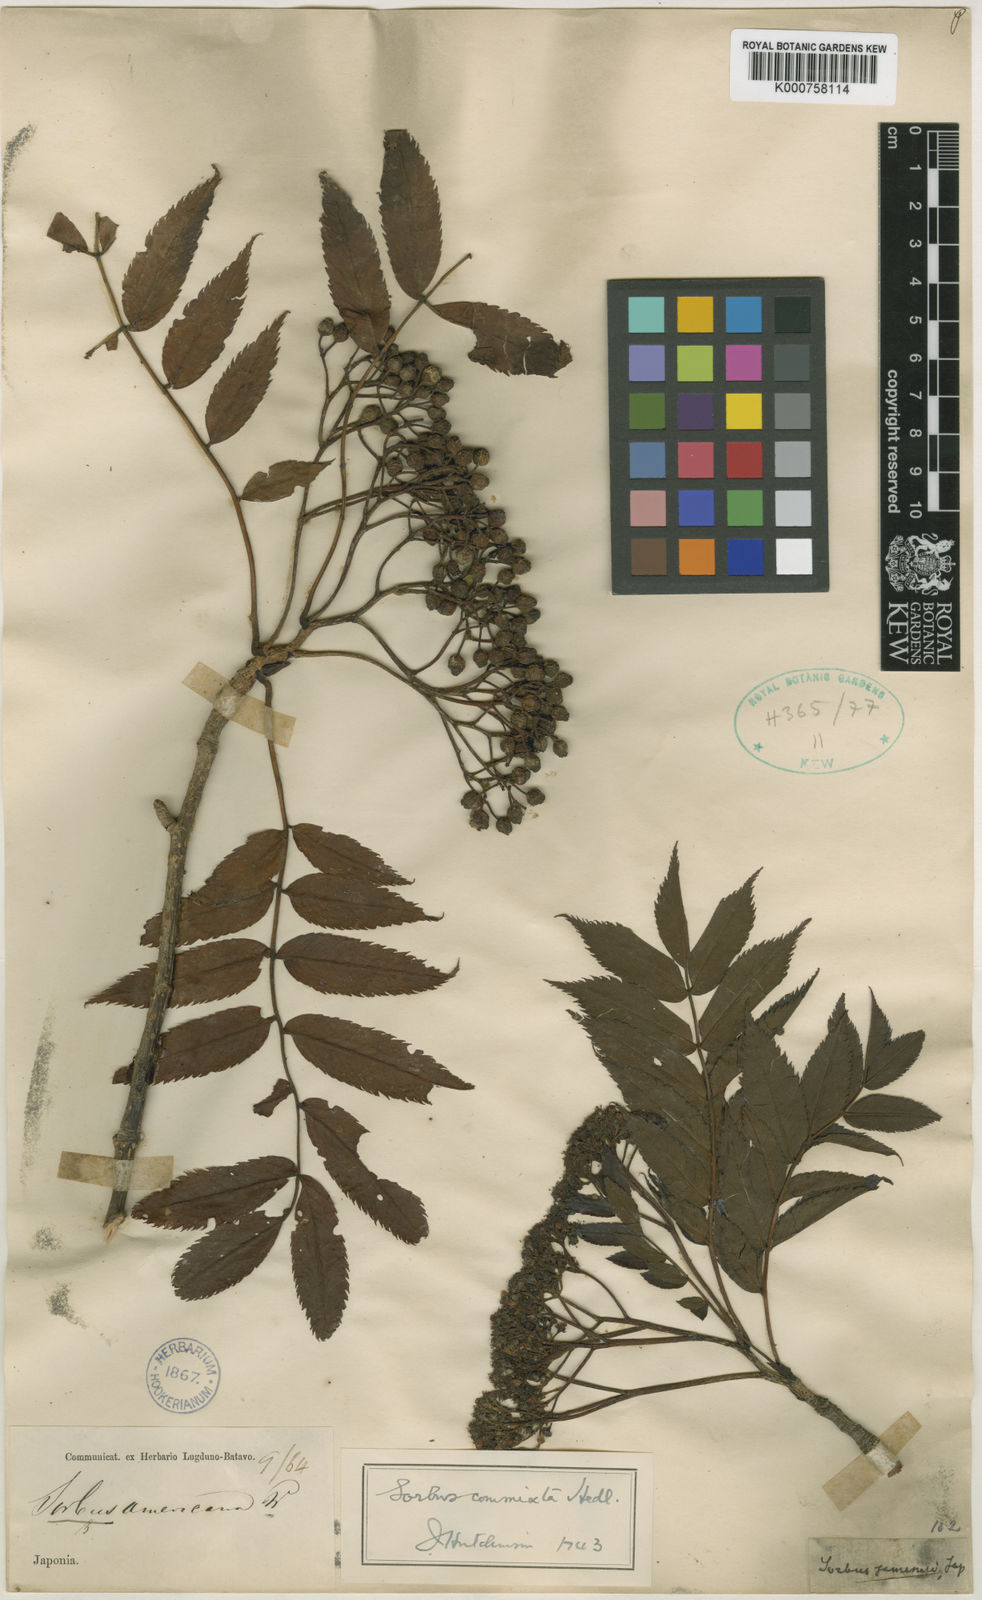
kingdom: Plantae
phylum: Tracheophyta
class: Magnoliopsida
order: Rosales
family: Rosaceae
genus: Sorbus
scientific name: Sorbus commixta
